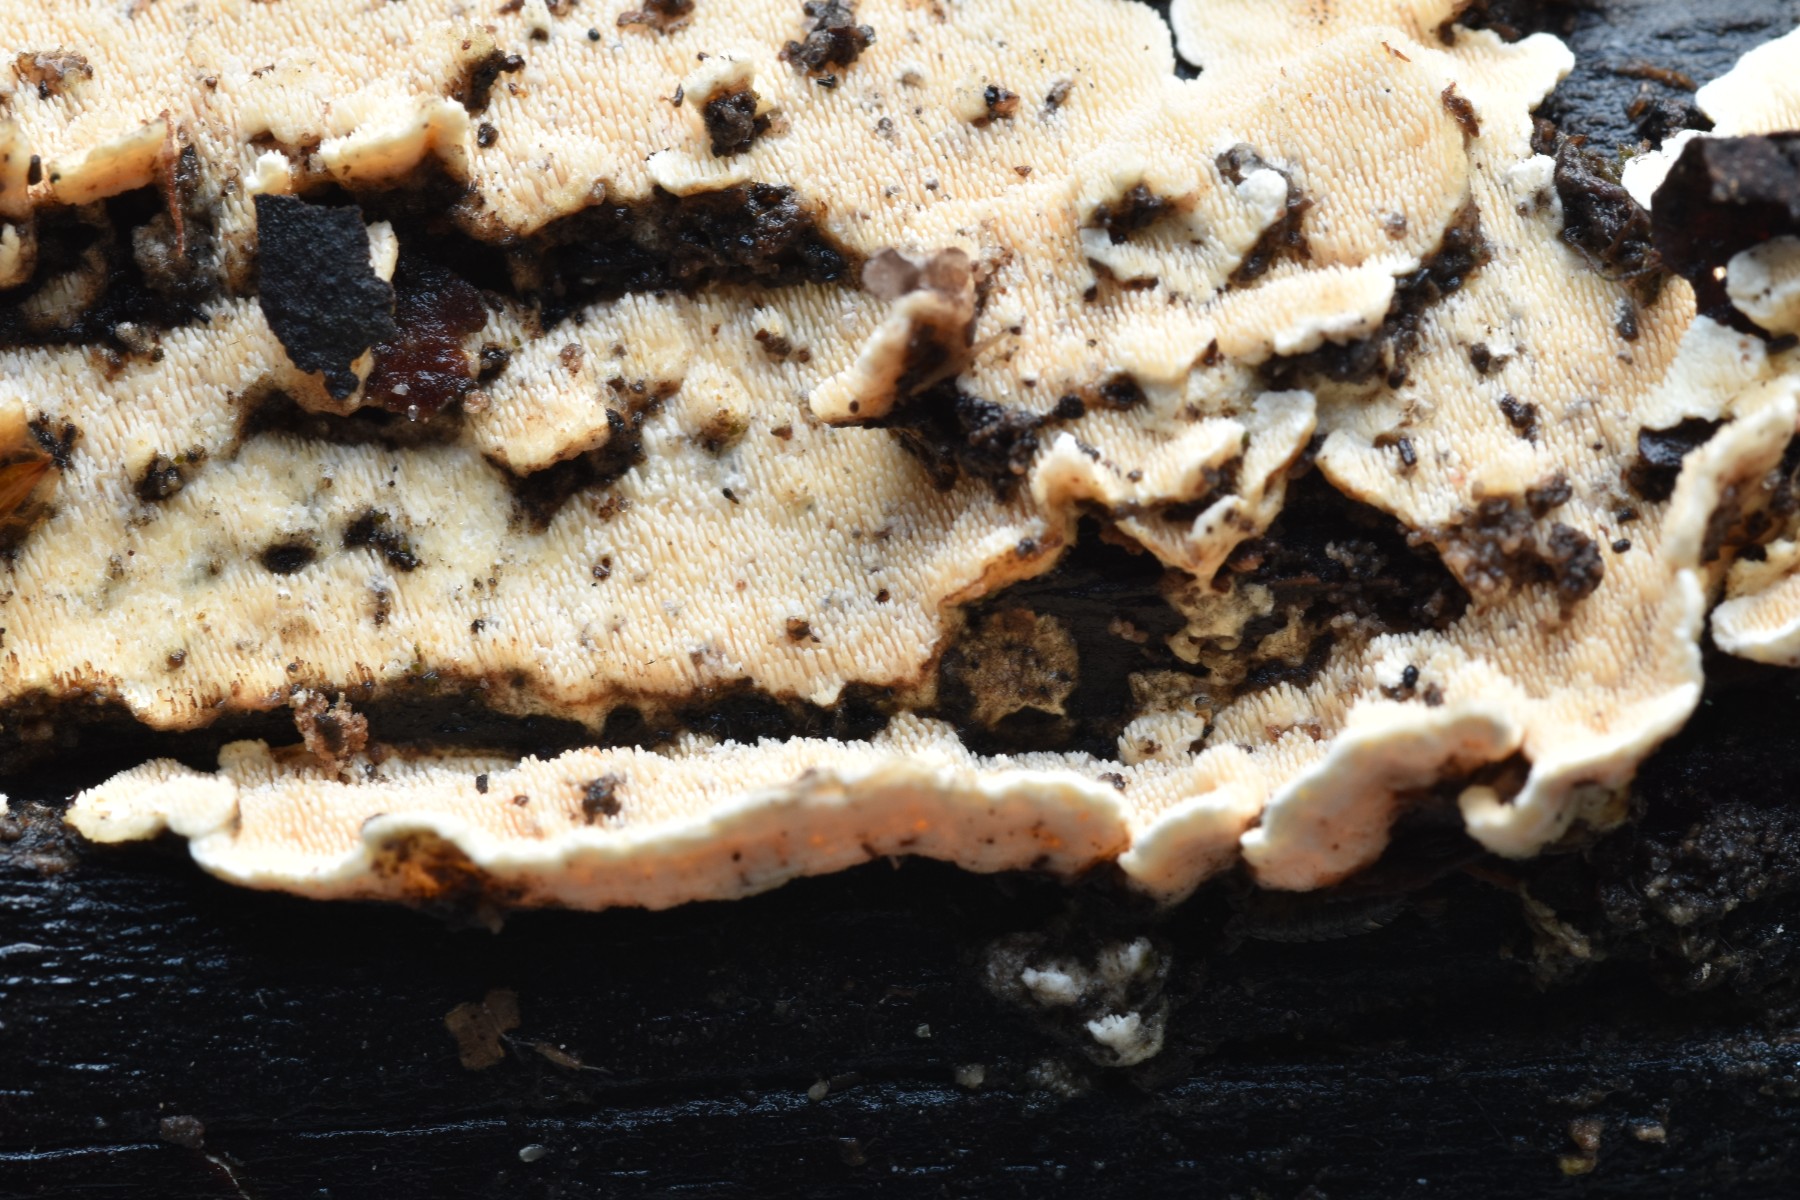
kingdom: Fungi
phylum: Basidiomycota
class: Agaricomycetes
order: Polyporales
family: Steccherinaceae
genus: Steccherinum
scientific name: Steccherinum ochraceum
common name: almindelig skønpig
